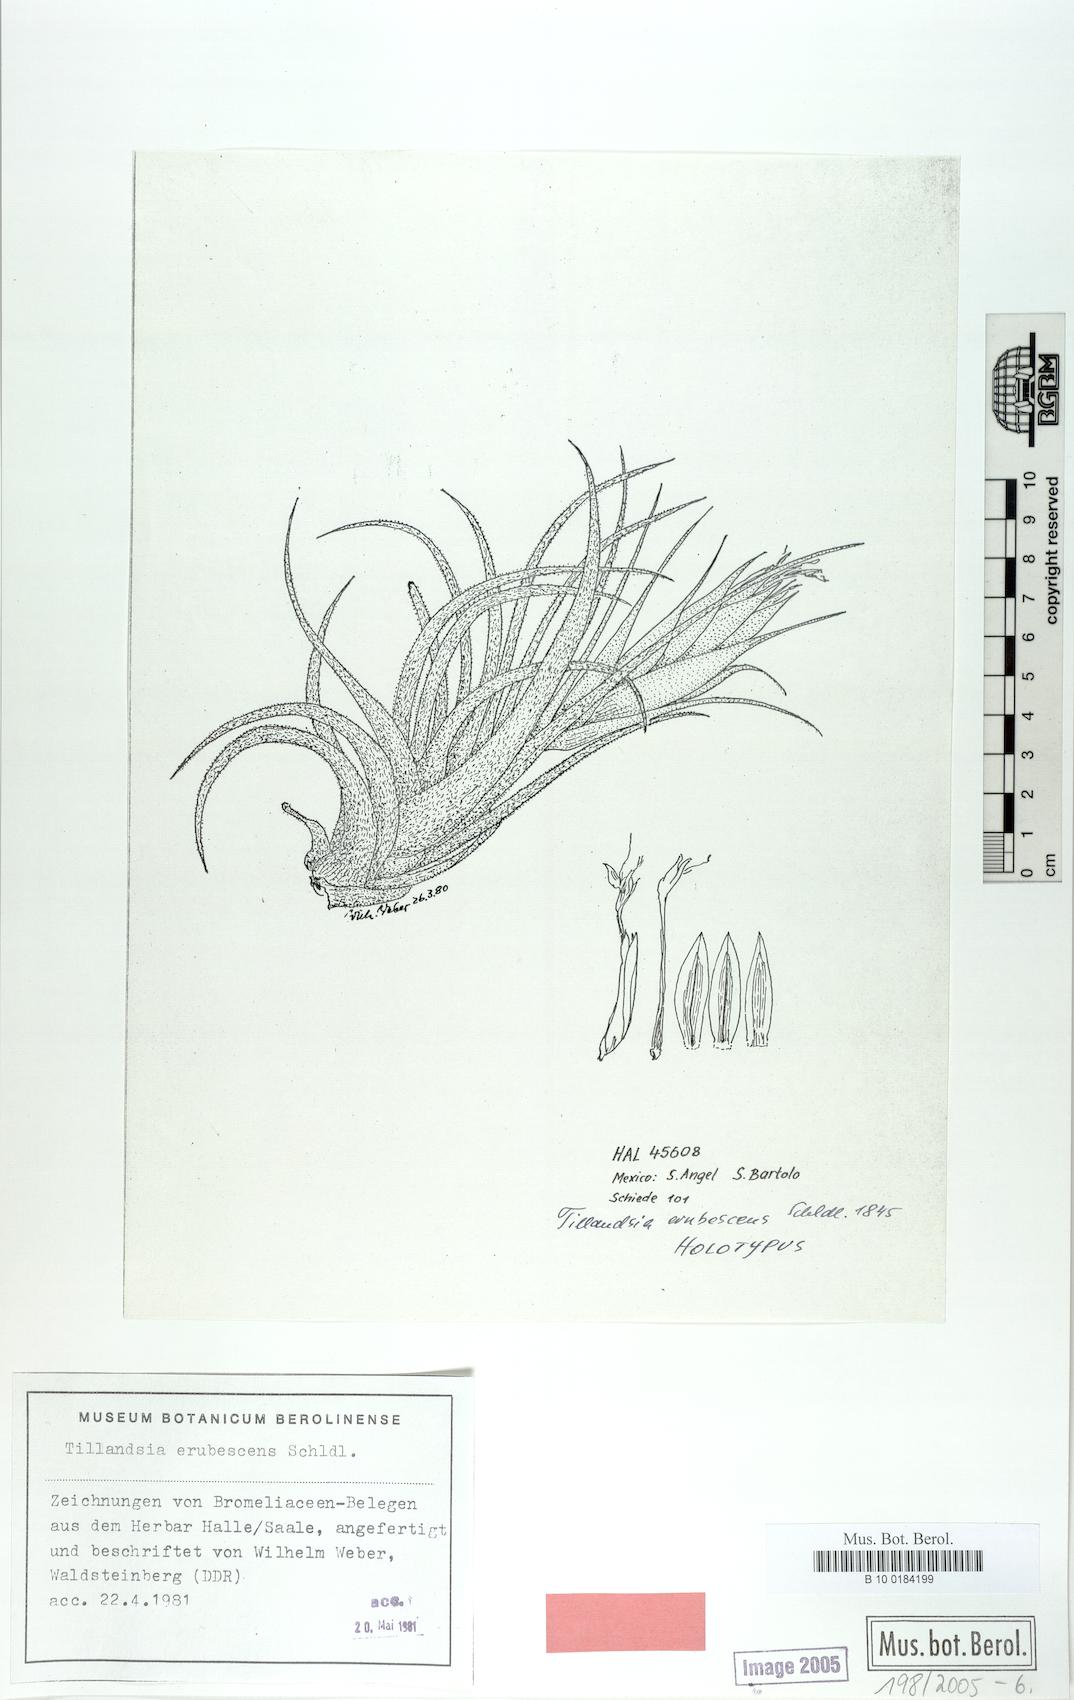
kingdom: Plantae
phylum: Tracheophyta
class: Liliopsida
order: Poales
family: Bromeliaceae
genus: Tillandsia
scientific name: Tillandsia erubescens
